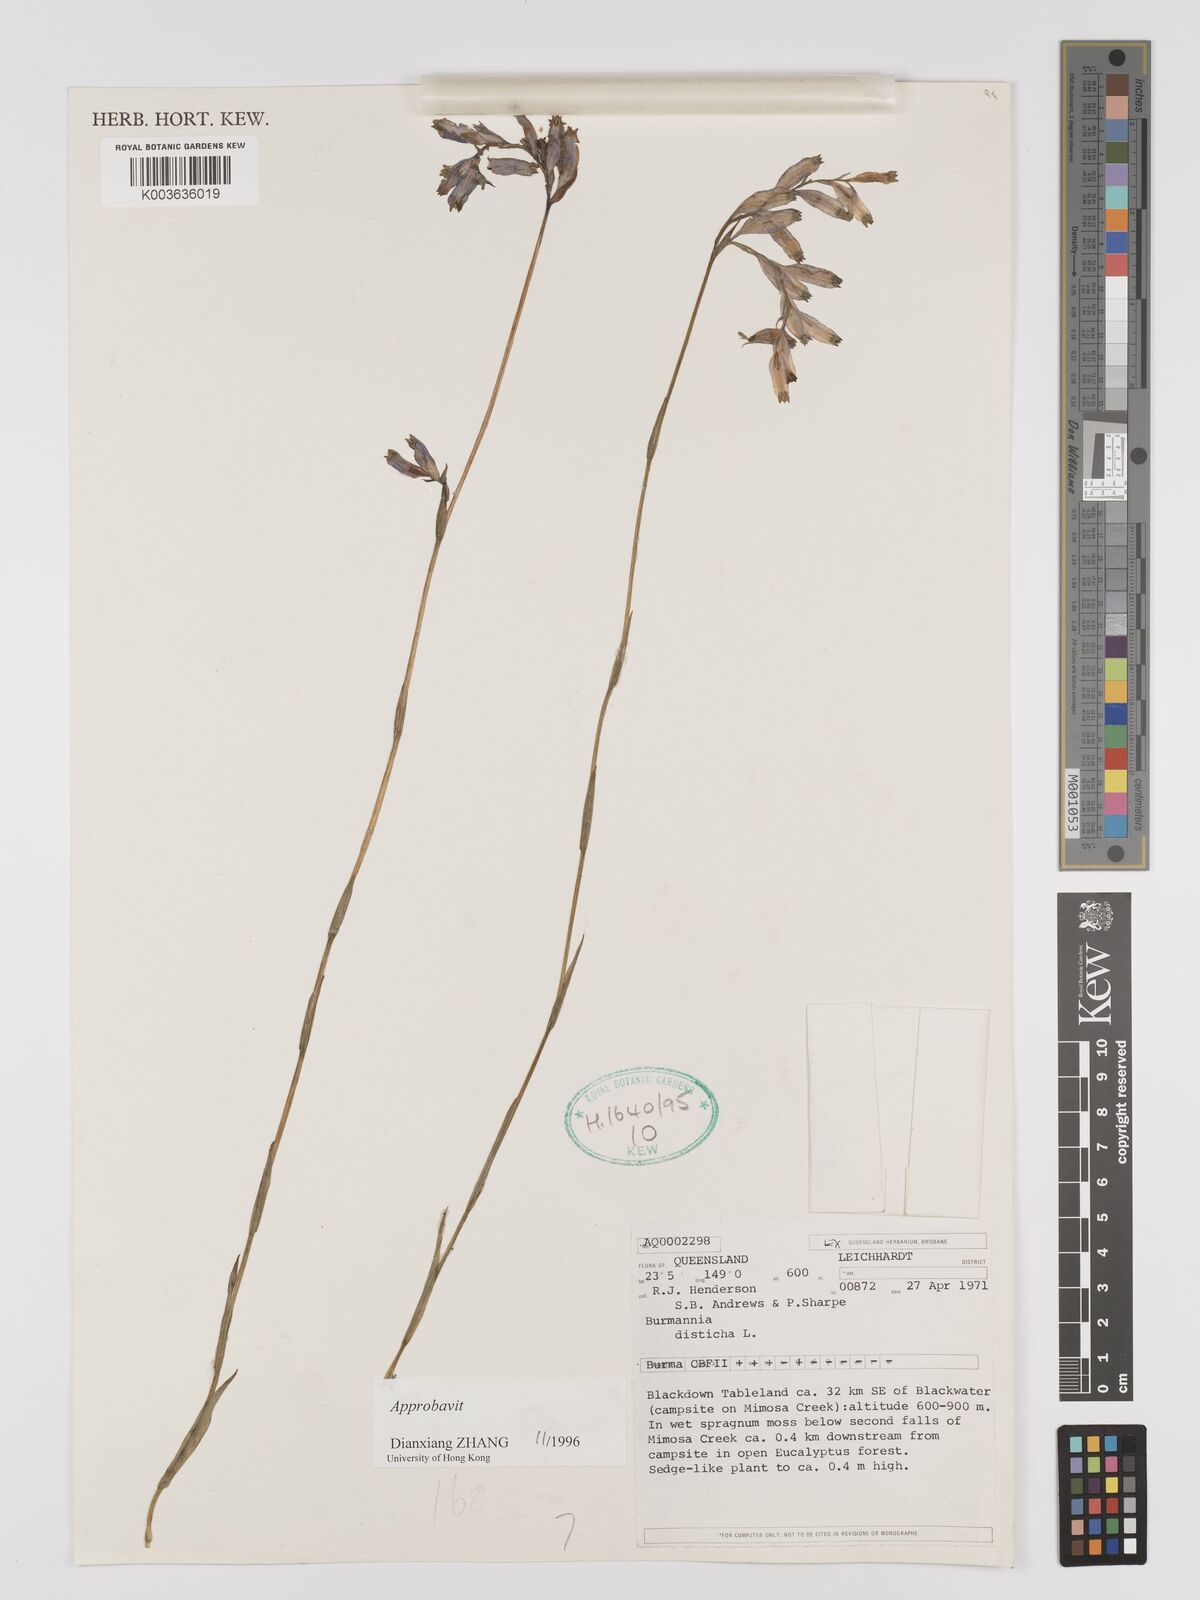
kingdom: Plantae
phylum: Tracheophyta
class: Liliopsida
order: Dioscoreales
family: Burmanniaceae
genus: Burmannia
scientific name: Burmannia disticha
